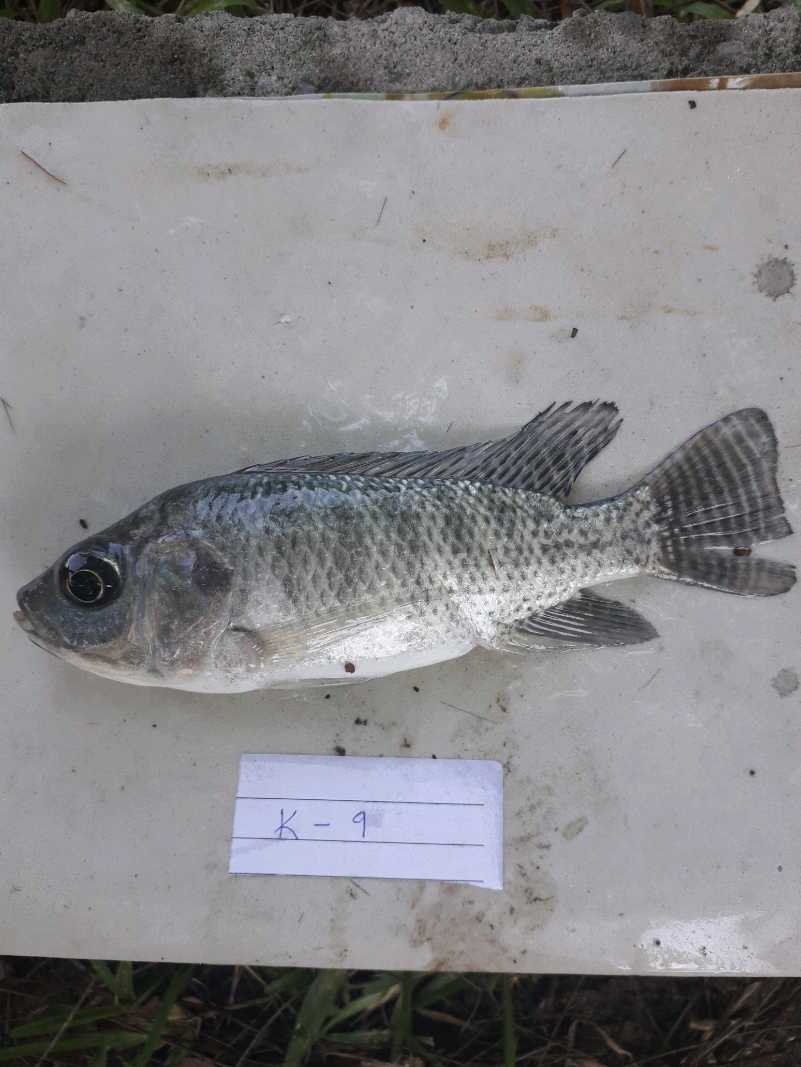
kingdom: Animalia
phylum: Chordata
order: Perciformes
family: Cichlidae
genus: Oreochromis
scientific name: Oreochromis niloticus
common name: Nile tilapia
